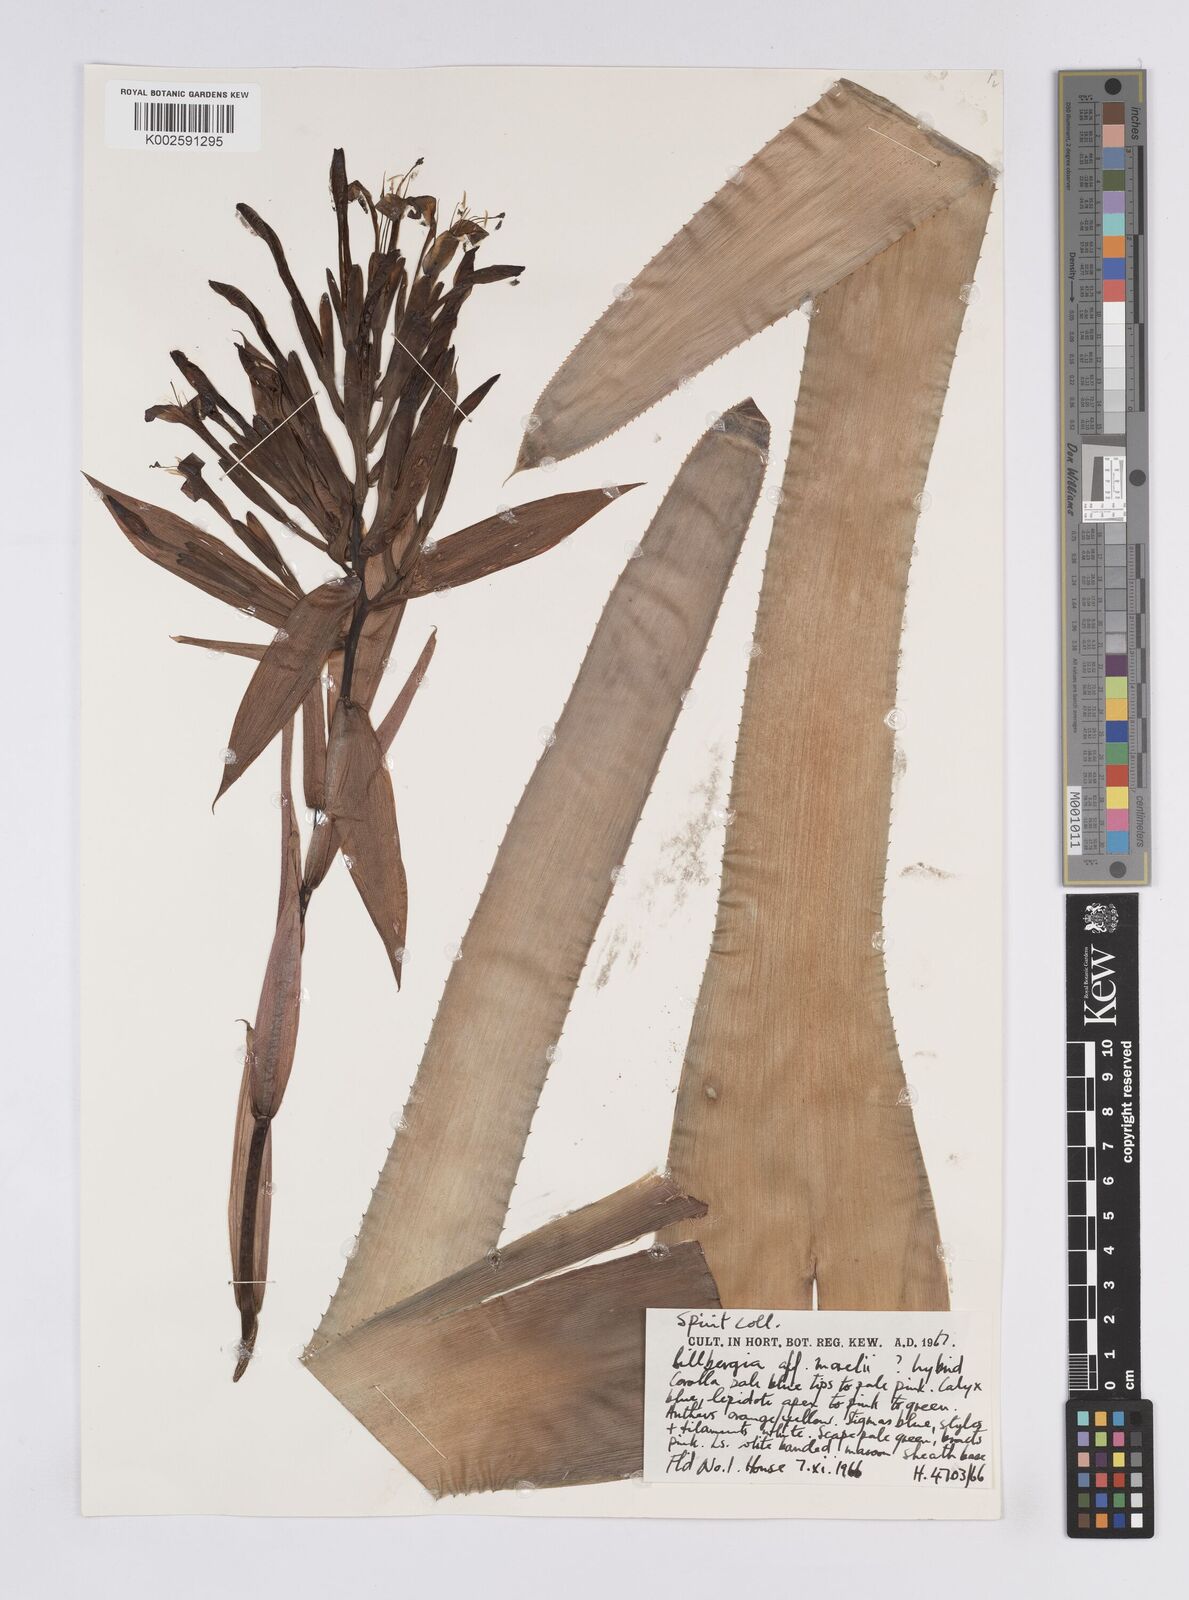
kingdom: Plantae
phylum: Tracheophyta
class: Liliopsida
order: Poales
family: Bromeliaceae
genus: Billbergia
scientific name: Billbergia morelii
